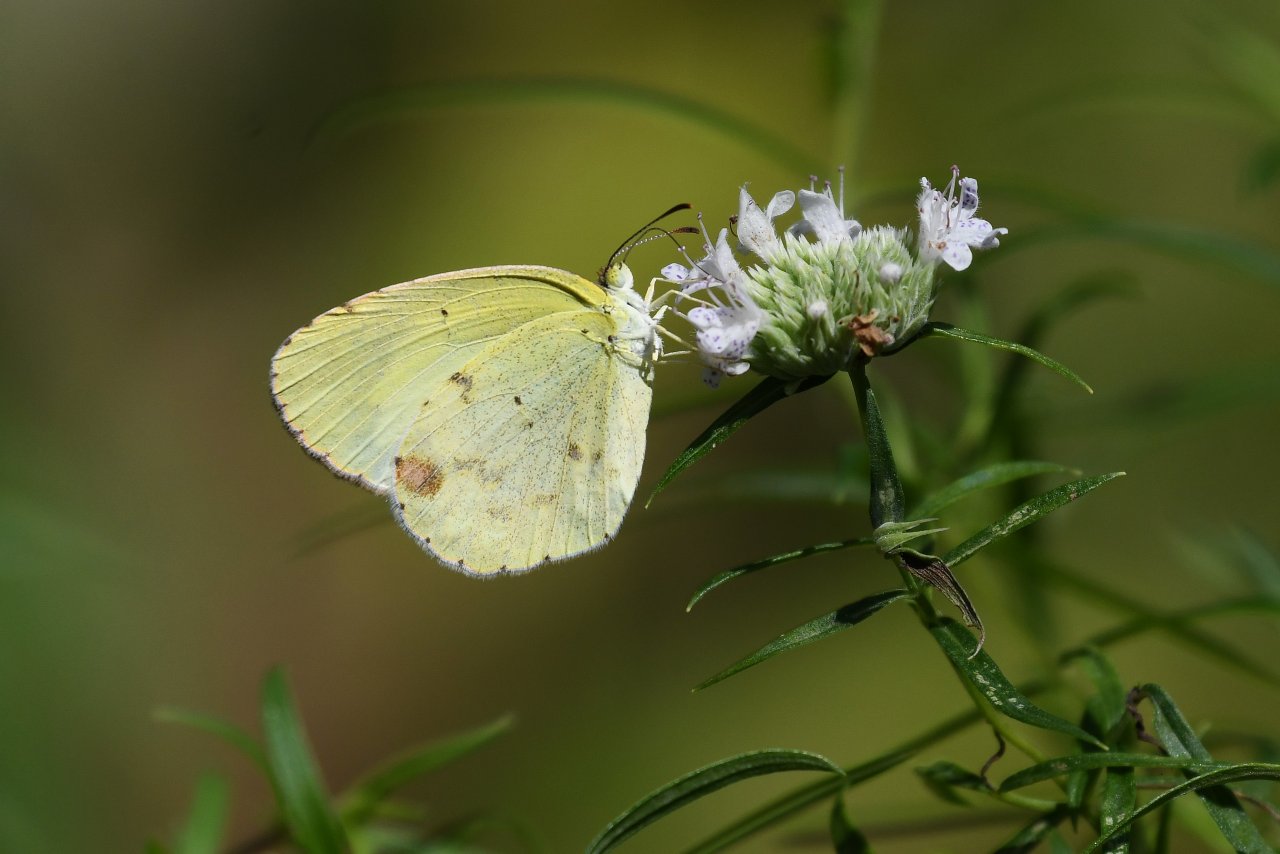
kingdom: Animalia
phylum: Arthropoda
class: Insecta
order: Lepidoptera
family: Pieridae
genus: Pyrisitia
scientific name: Pyrisitia lisa
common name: Little Yellow
